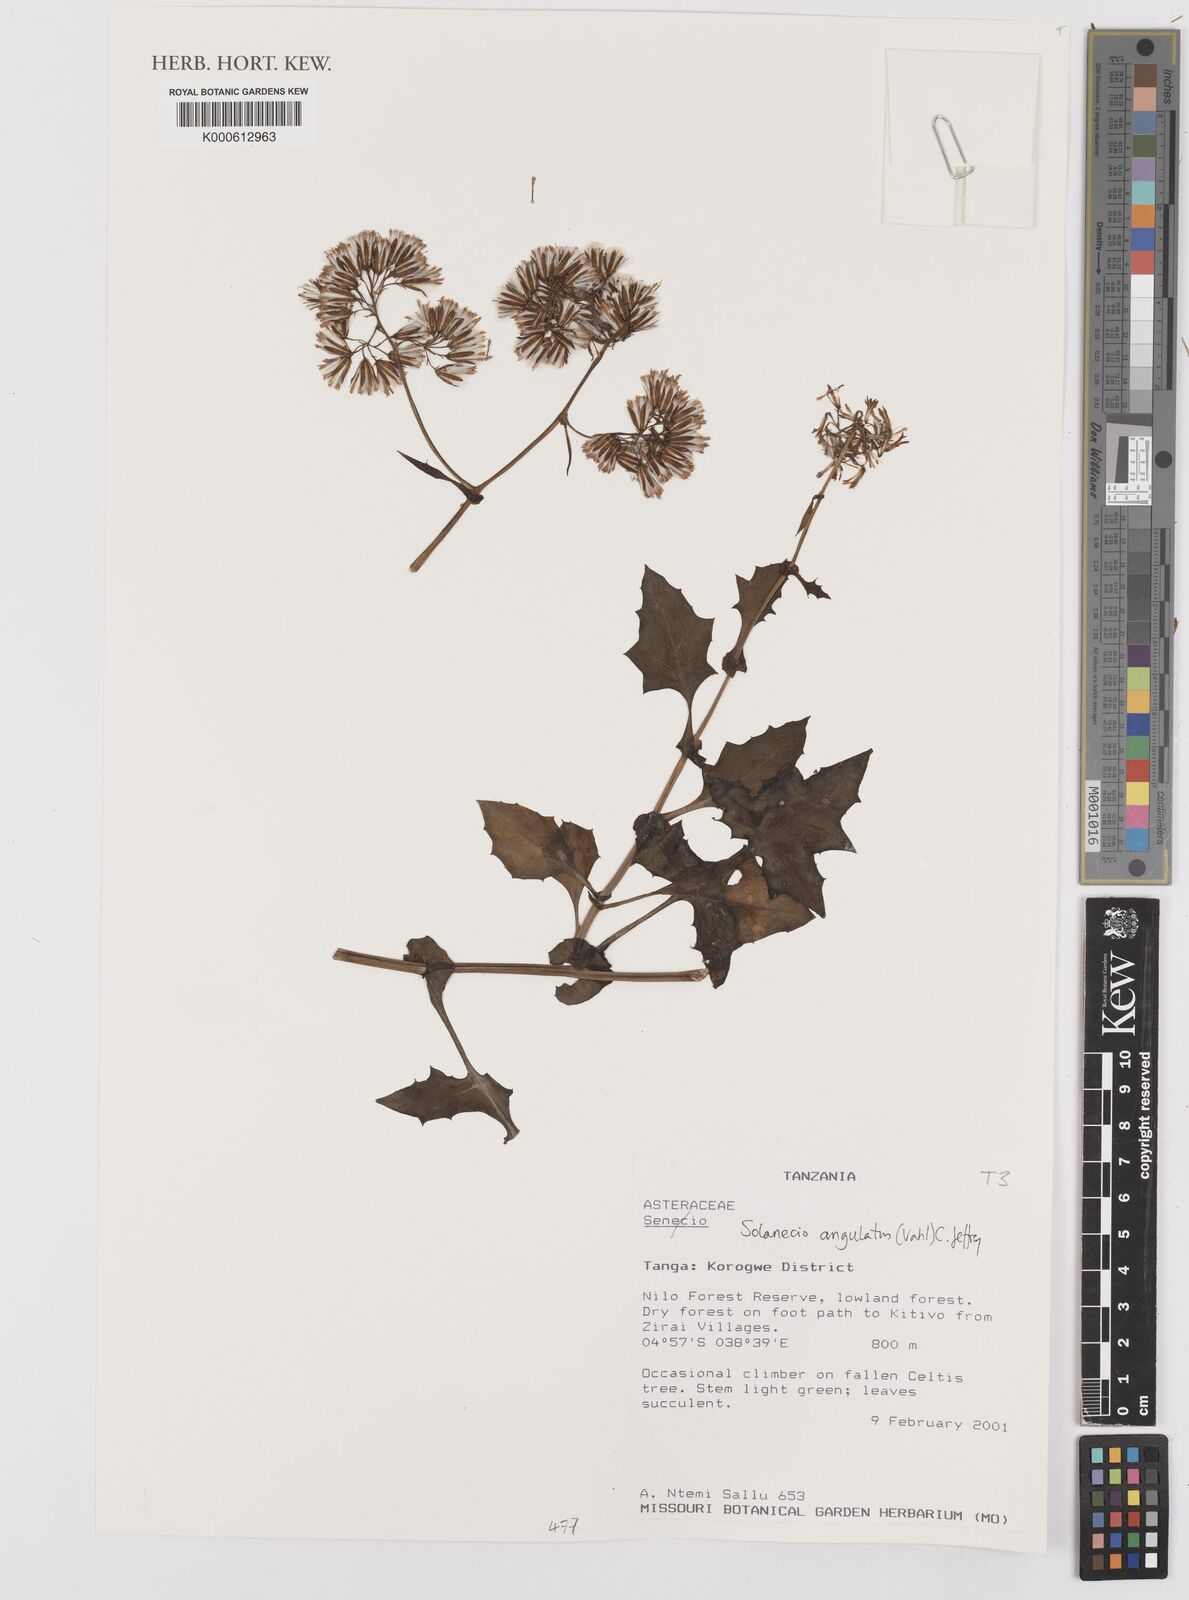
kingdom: Plantae
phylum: Tracheophyta
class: Magnoliopsida
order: Asterales
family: Asteraceae
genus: Solanecio
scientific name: Solanecio angulatus
